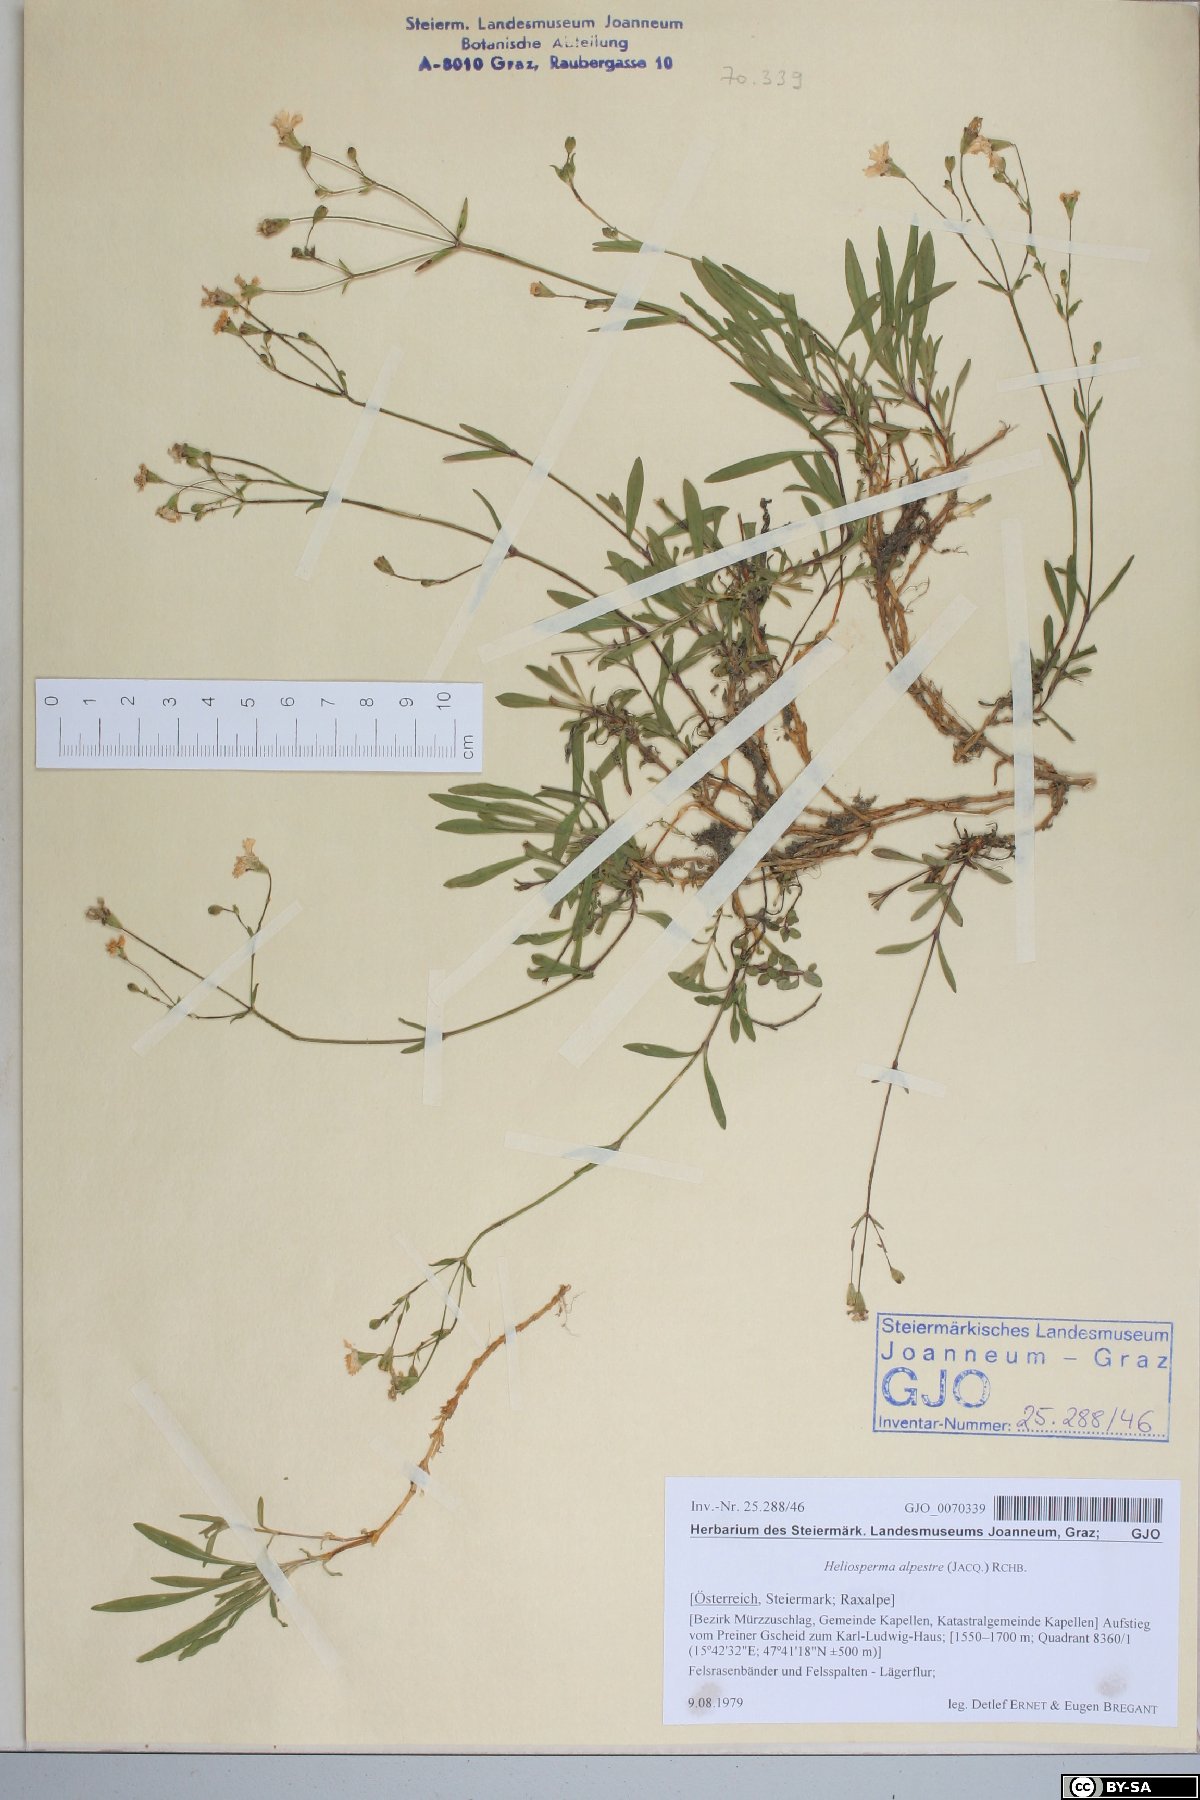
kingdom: Plantae
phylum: Tracheophyta
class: Magnoliopsida
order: Caryophyllales
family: Caryophyllaceae
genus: Heliosperma
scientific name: Heliosperma alpestre
